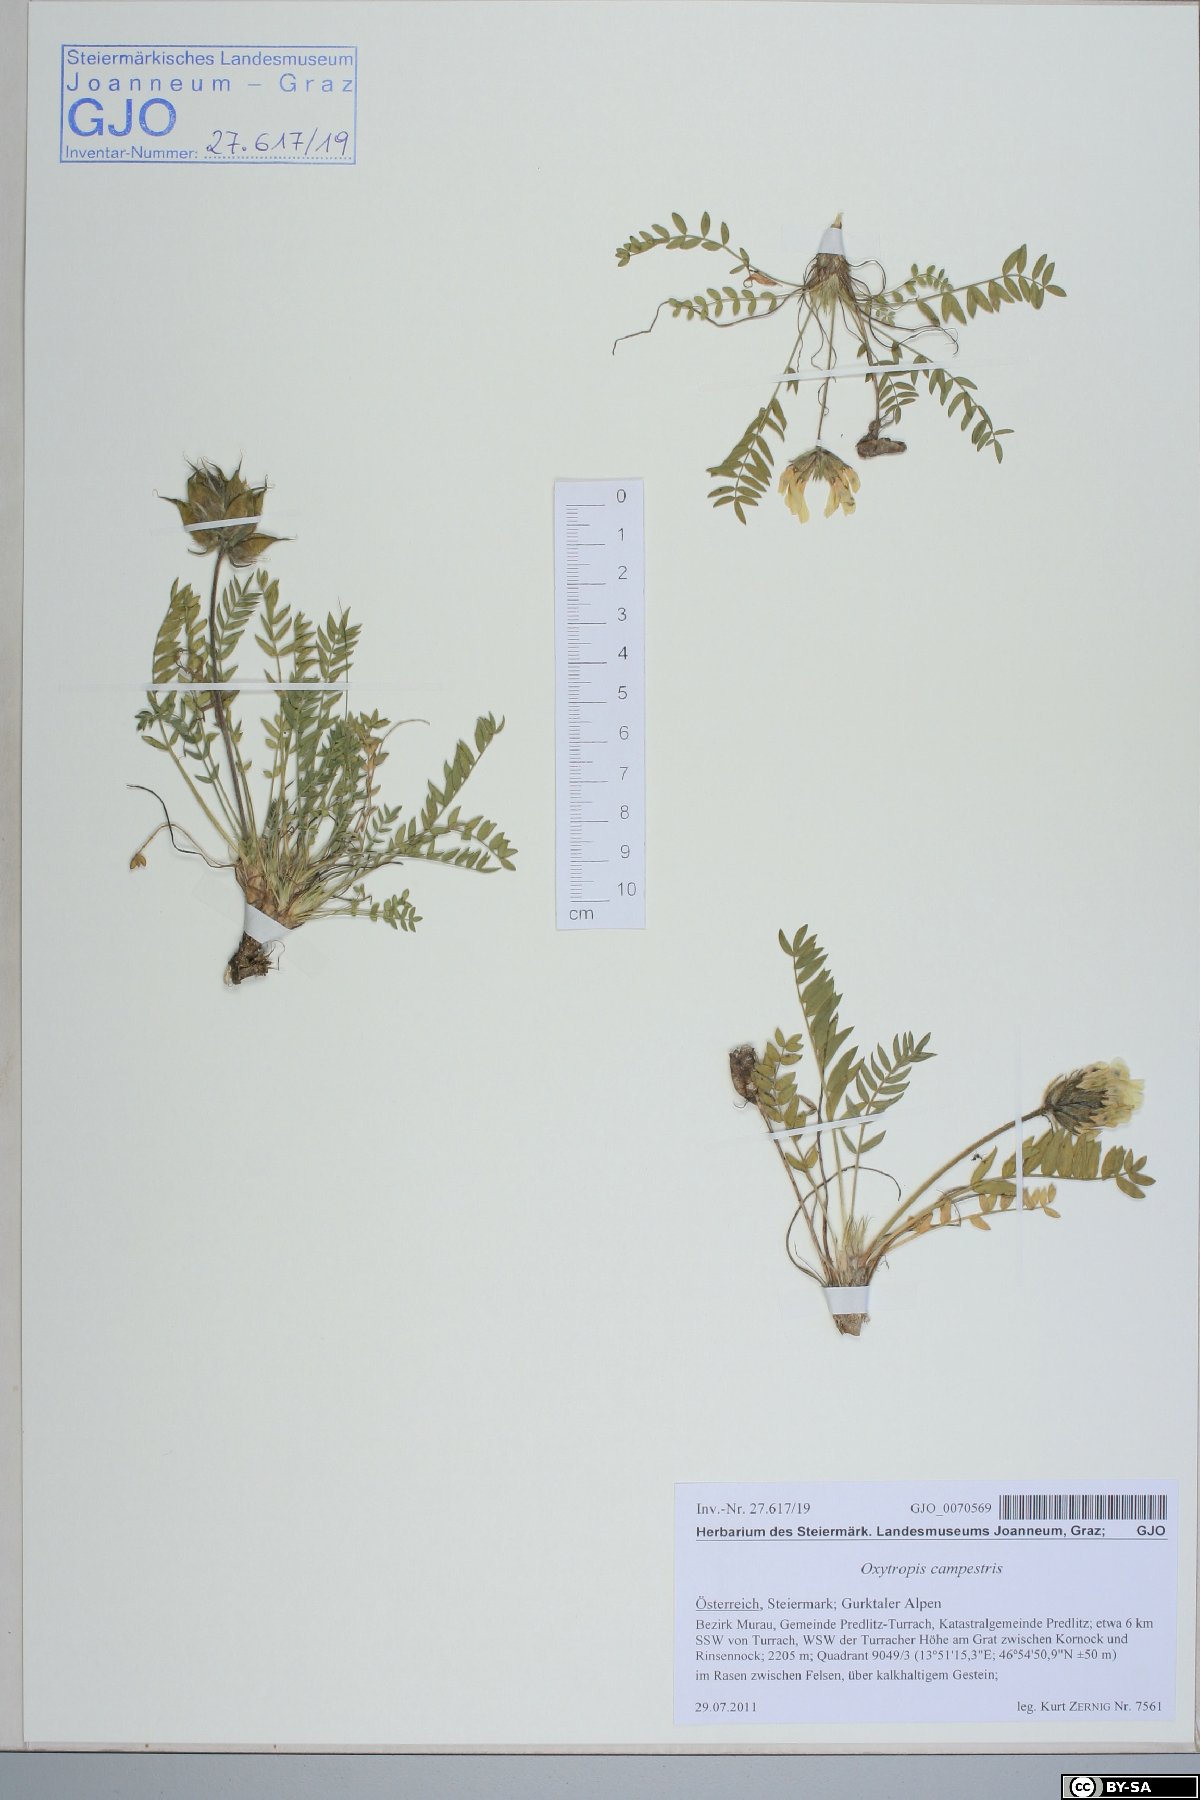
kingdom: Plantae
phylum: Tracheophyta
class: Magnoliopsida
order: Fabales
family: Fabaceae
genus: Oxytropis
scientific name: Oxytropis campestris
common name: Field locoweed
